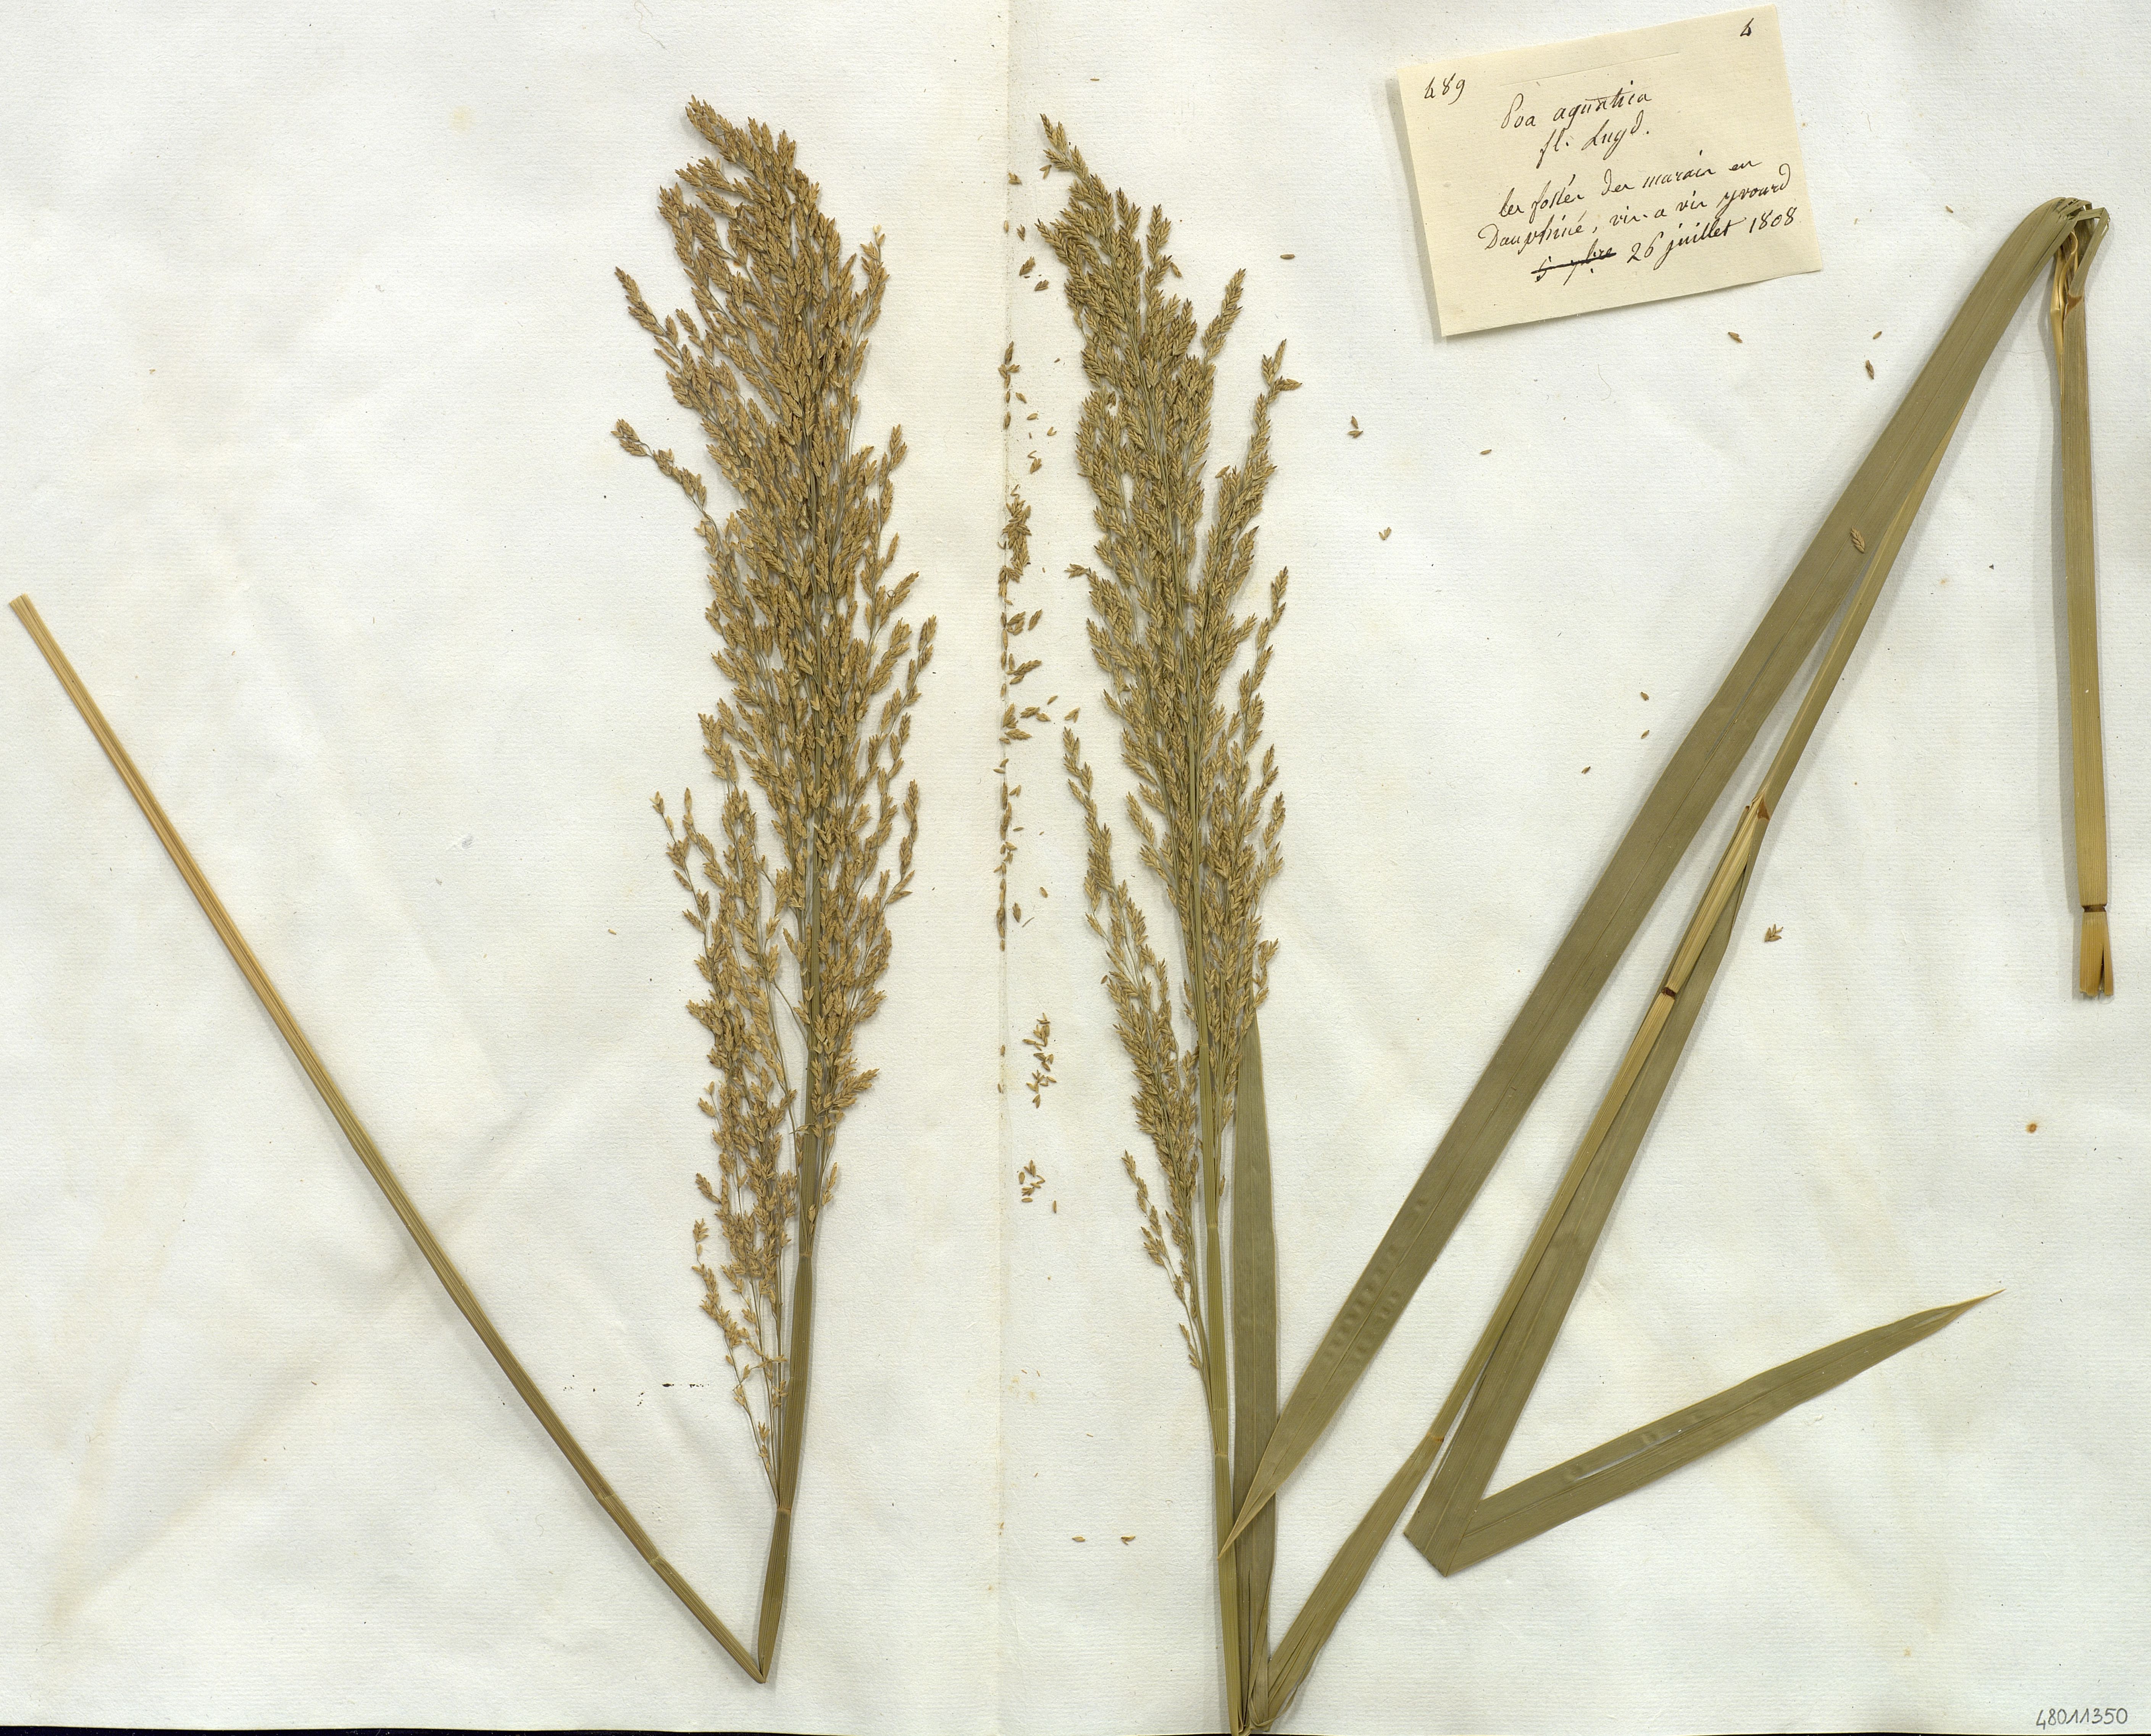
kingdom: Plantae
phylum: Tracheophyta
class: Liliopsida
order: Poales
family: Poaceae
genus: Glyceria
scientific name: Glyceria maxima
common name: Reed mannagrass
